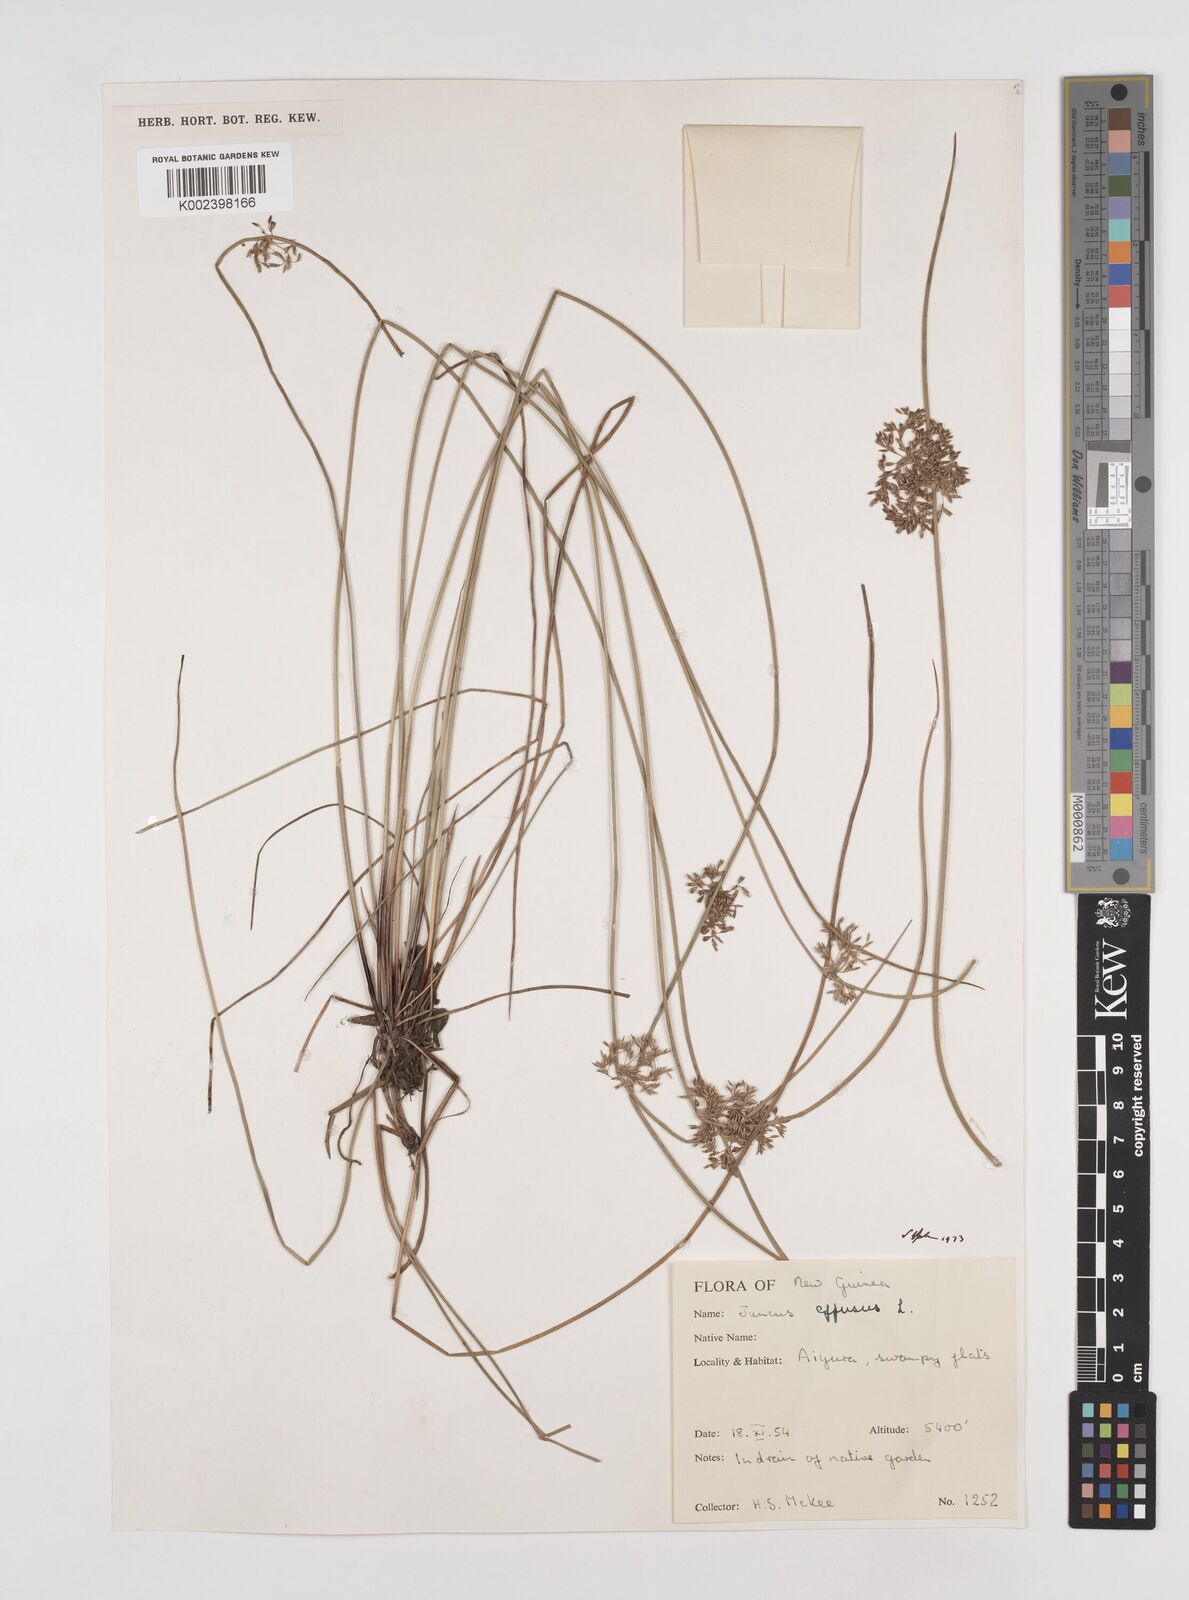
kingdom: Plantae
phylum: Tracheophyta
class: Liliopsida
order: Poales
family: Juncaceae
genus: Juncus
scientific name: Juncus effusus
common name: Soft rush
